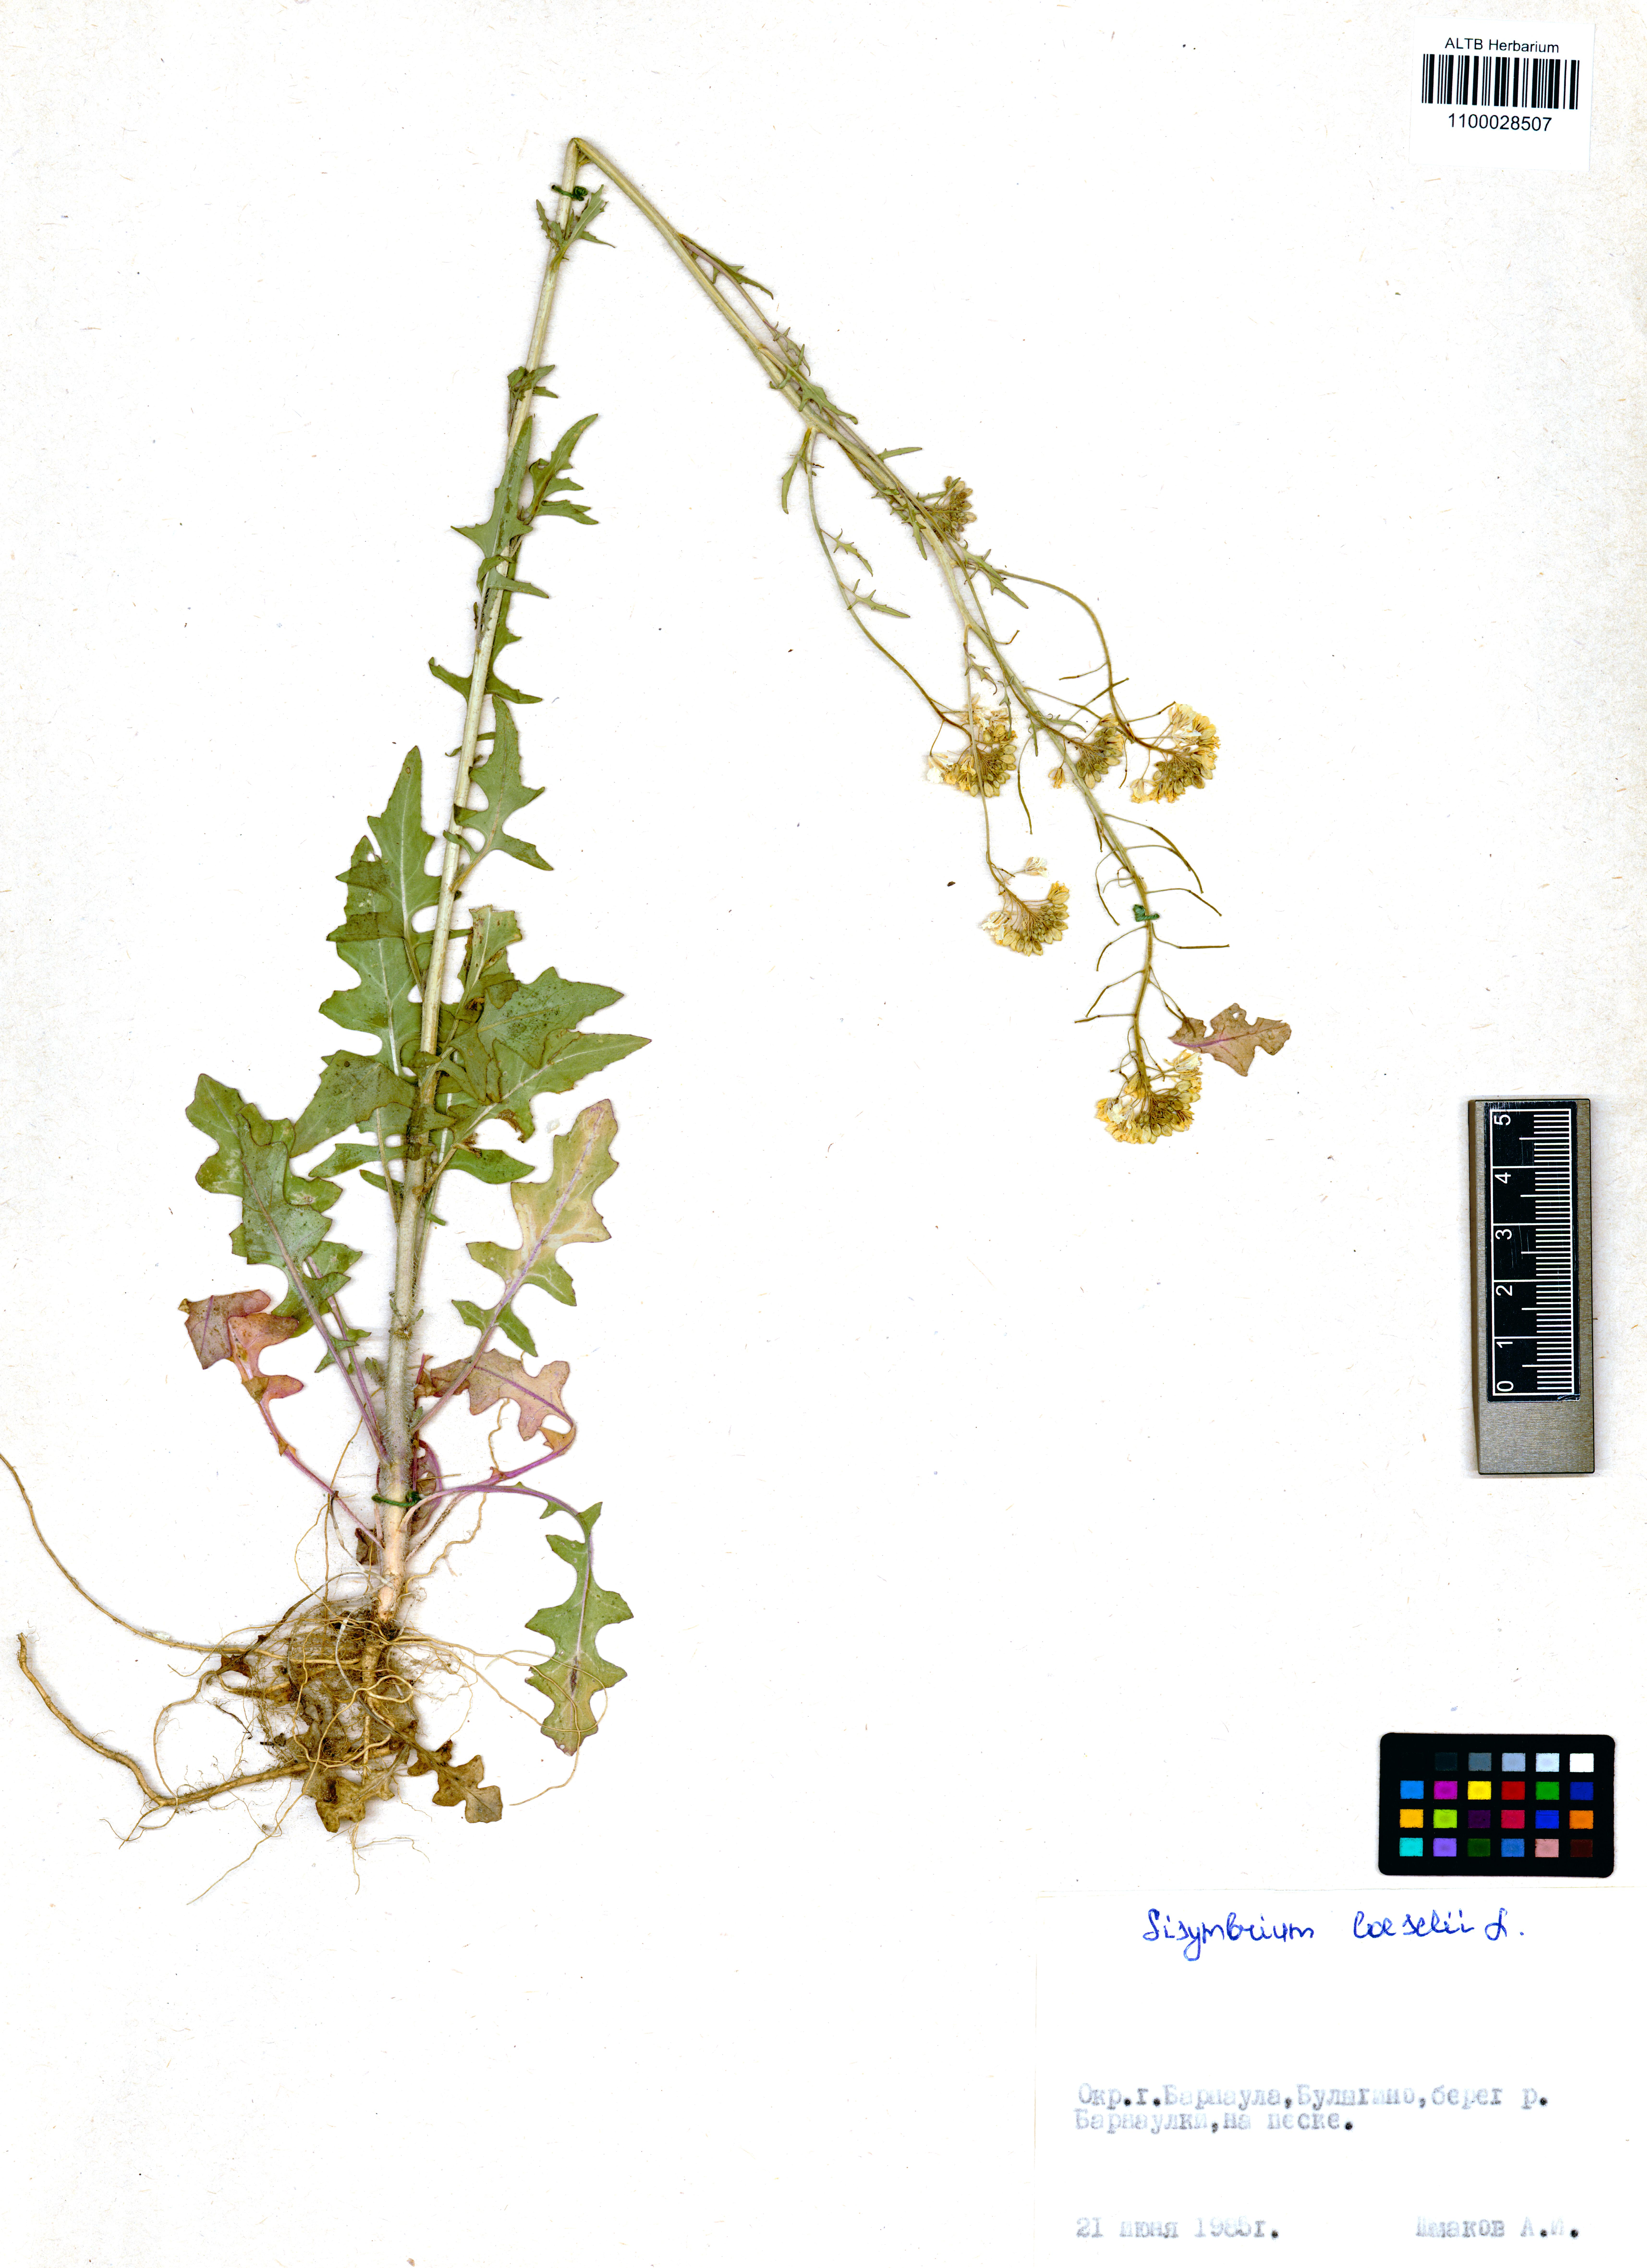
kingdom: Plantae
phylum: Tracheophyta
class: Magnoliopsida
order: Brassicales
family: Brassicaceae
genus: Sisymbrium
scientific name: Sisymbrium loeselii
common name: False london-rocket
